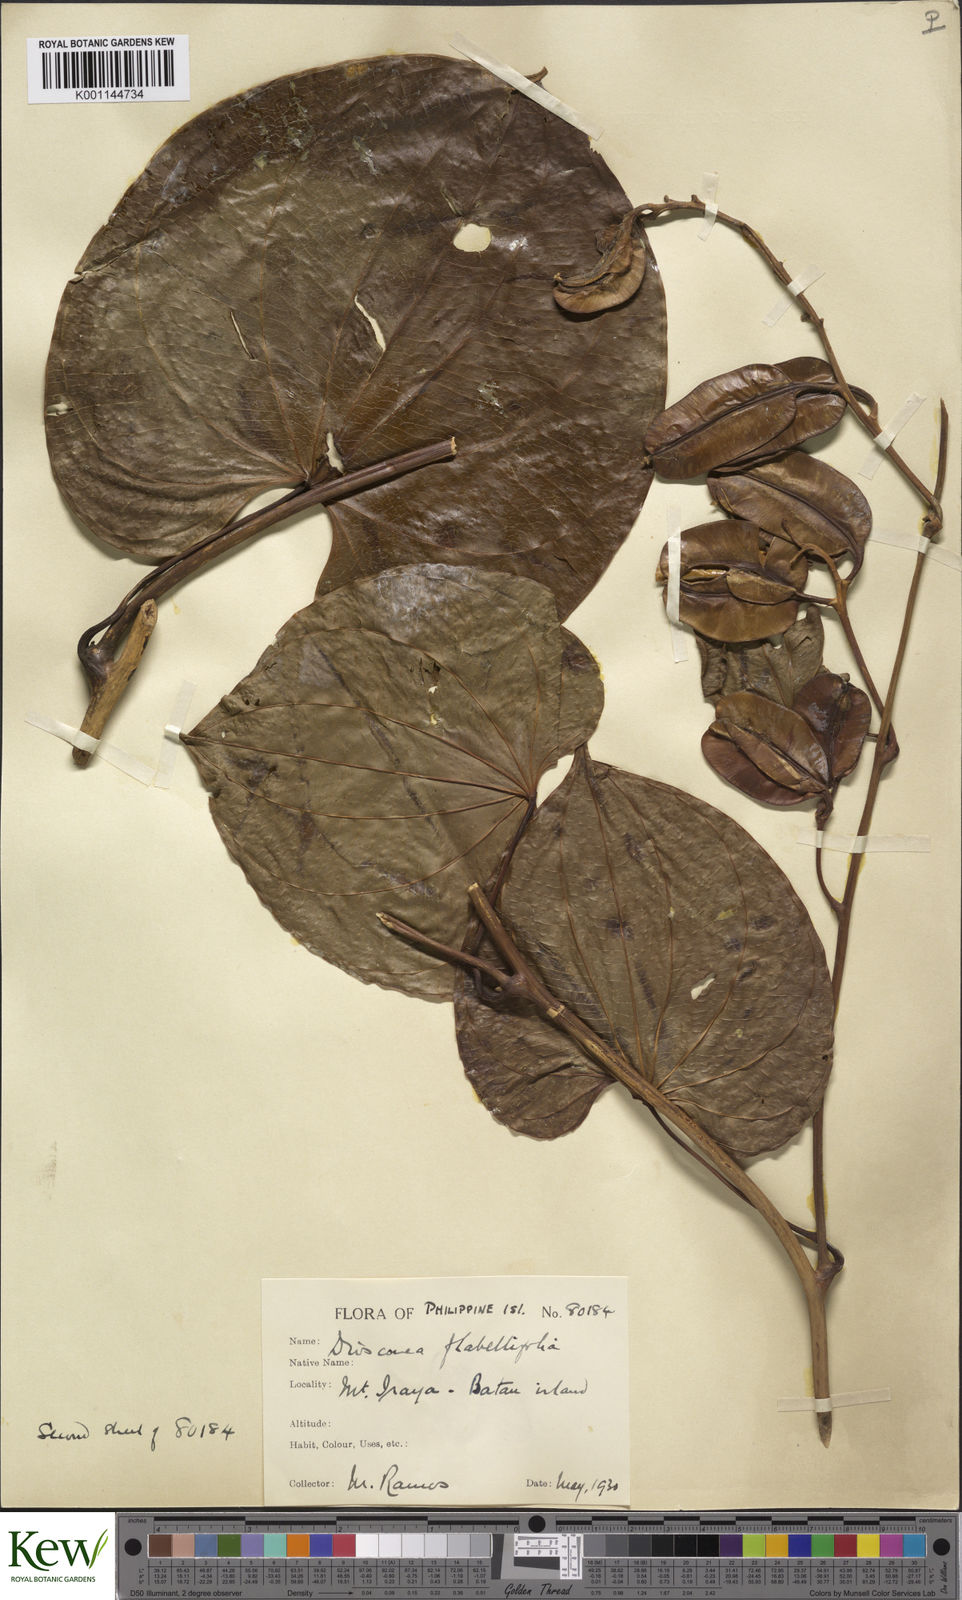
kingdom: Plantae
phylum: Tracheophyta
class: Liliopsida
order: Dioscoreales
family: Dioscoreaceae
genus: Dioscorea
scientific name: Dioscorea flabellifolia
